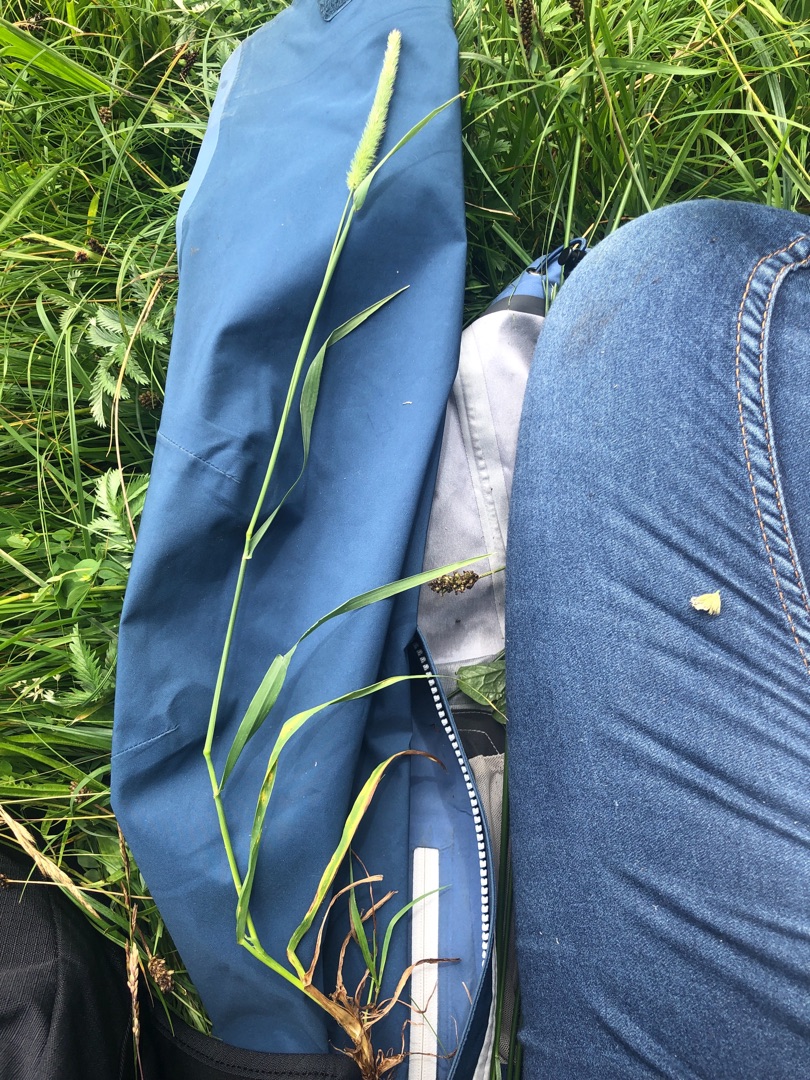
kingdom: Plantae
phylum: Tracheophyta
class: Liliopsida
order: Poales
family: Poaceae
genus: Phleum
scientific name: Phleum pratense
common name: Eng-rottehale
